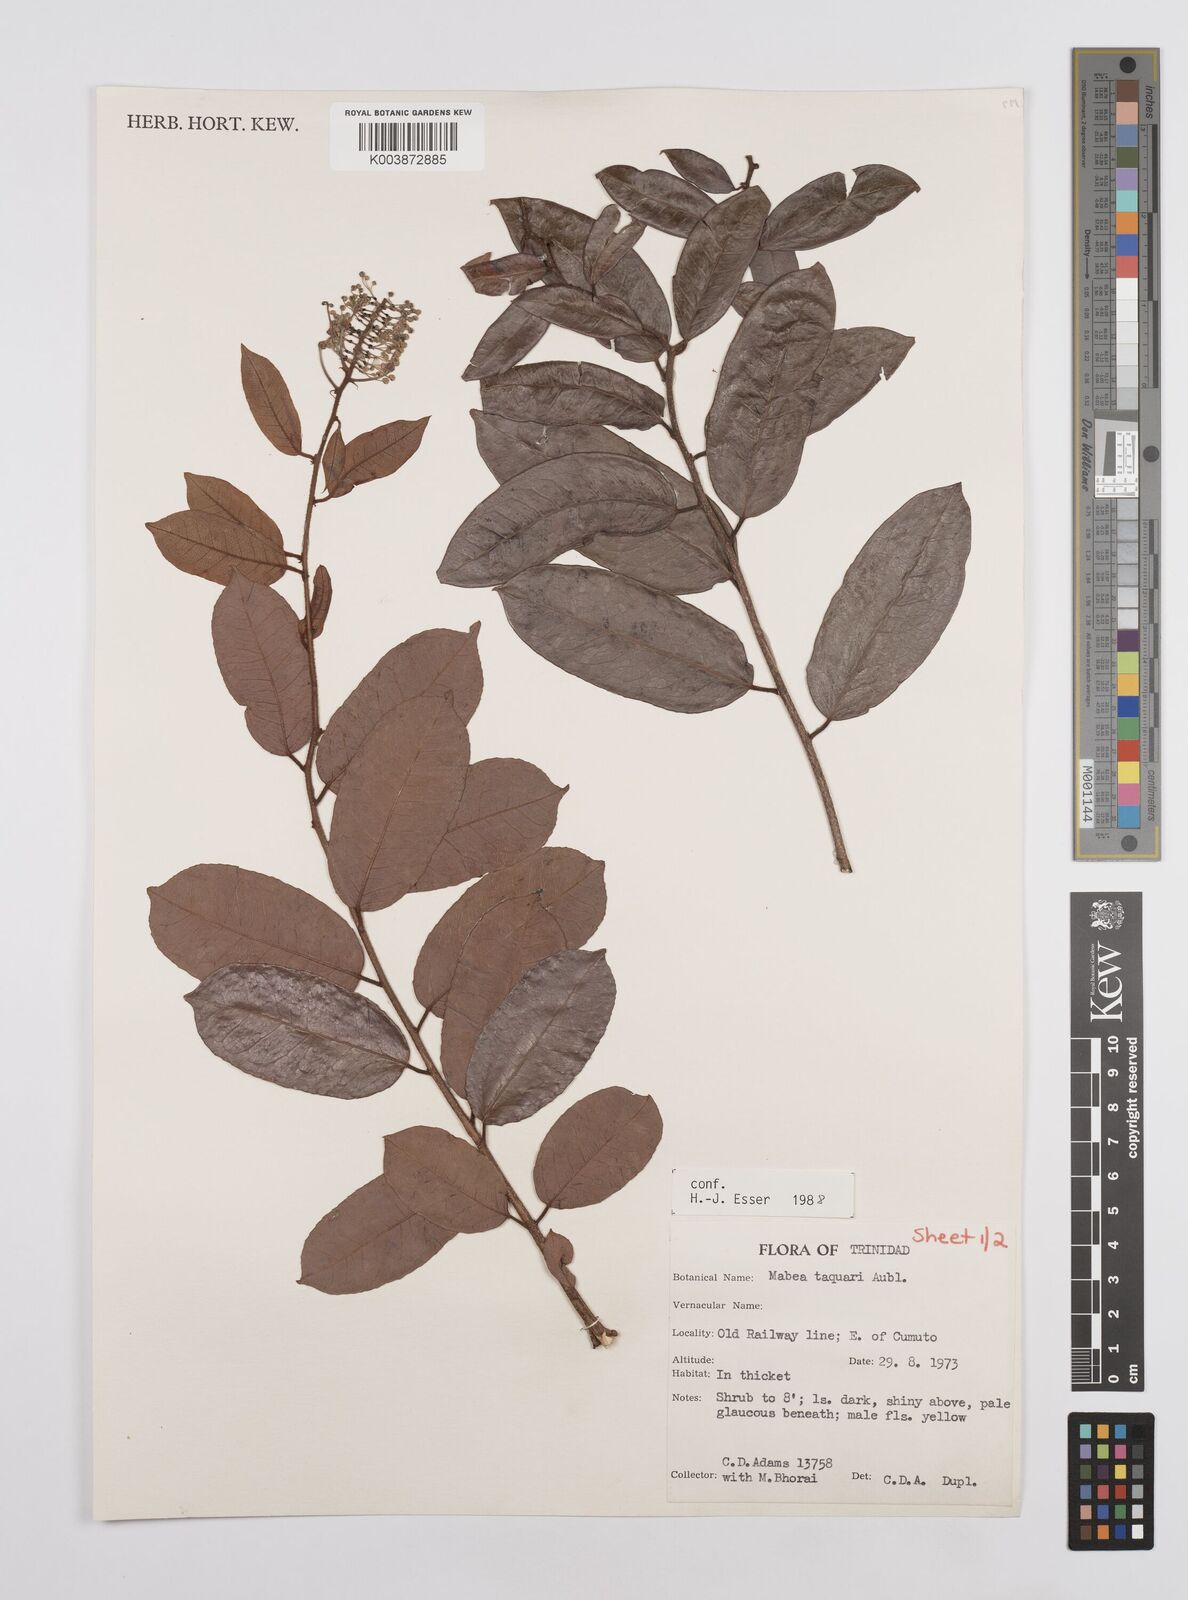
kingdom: Plantae
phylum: Tracheophyta
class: Magnoliopsida
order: Malpighiales
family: Euphorbiaceae
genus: Mabea
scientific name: Mabea taquari
